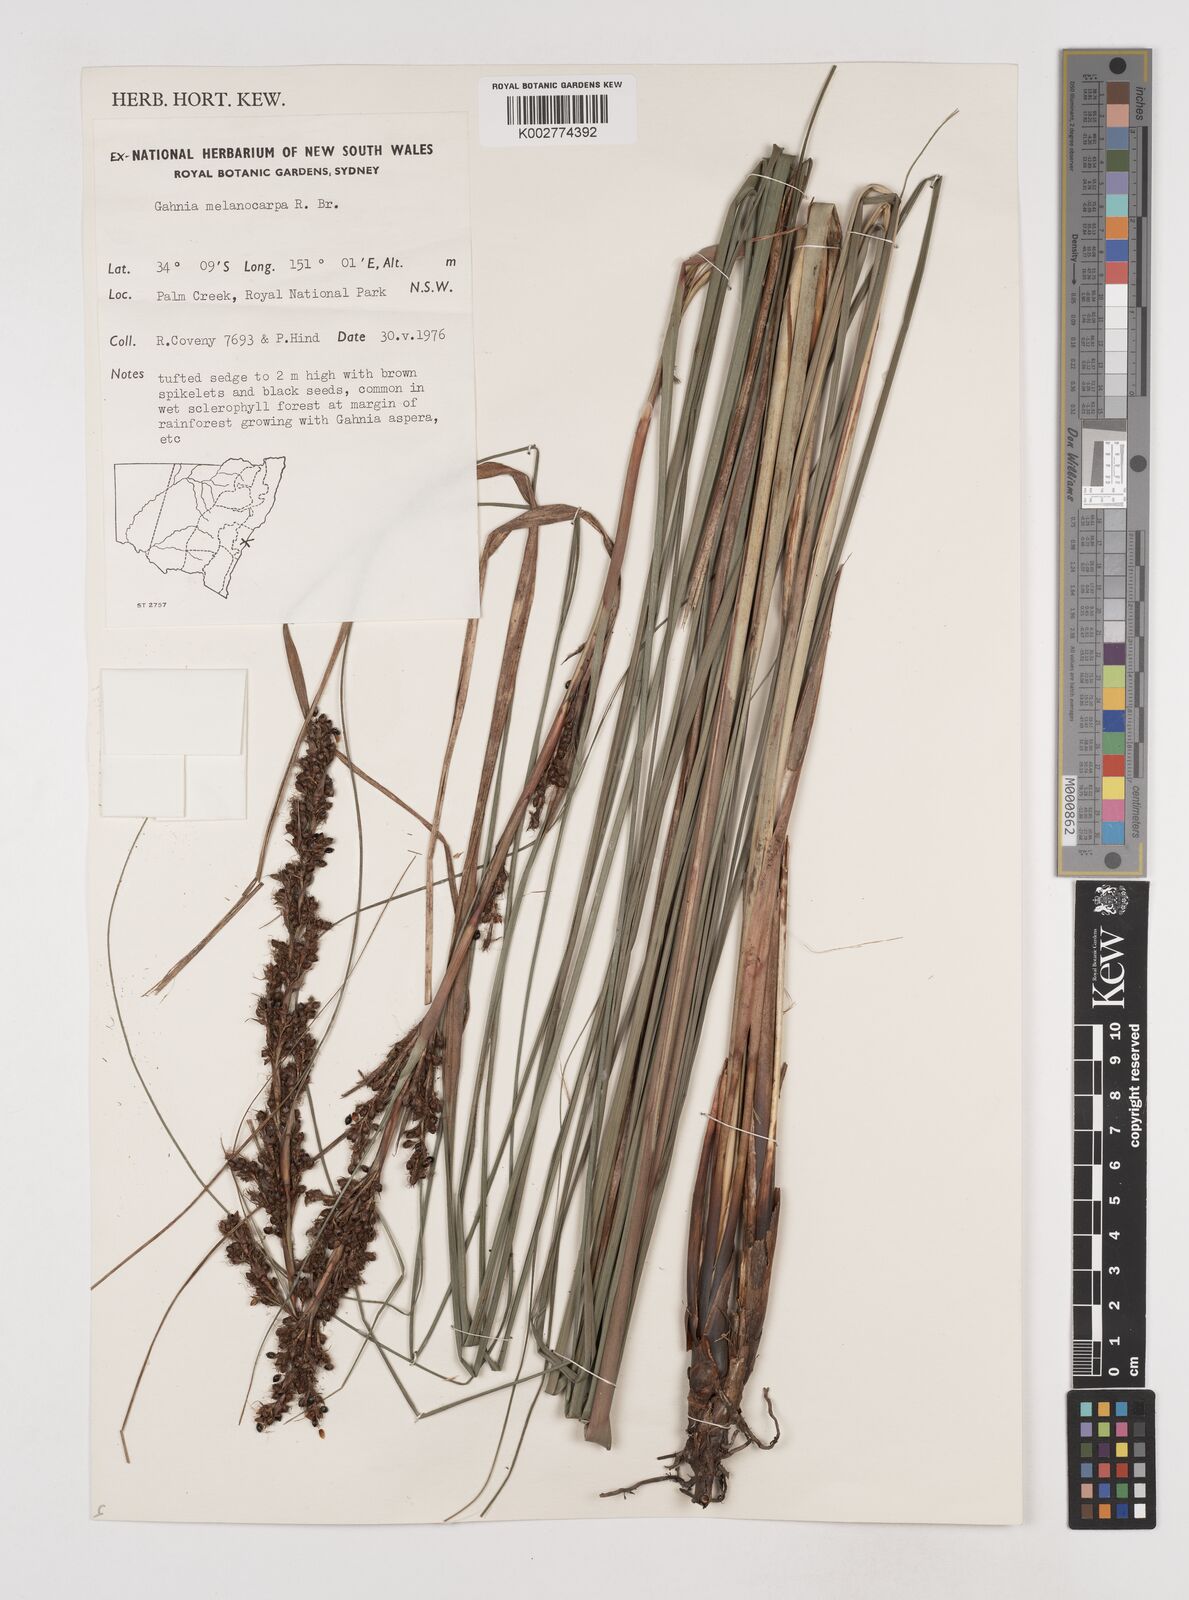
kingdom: Plantae
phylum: Tracheophyta
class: Liliopsida
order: Poales
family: Cyperaceae
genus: Gahnia
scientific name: Gahnia melanocarpa
